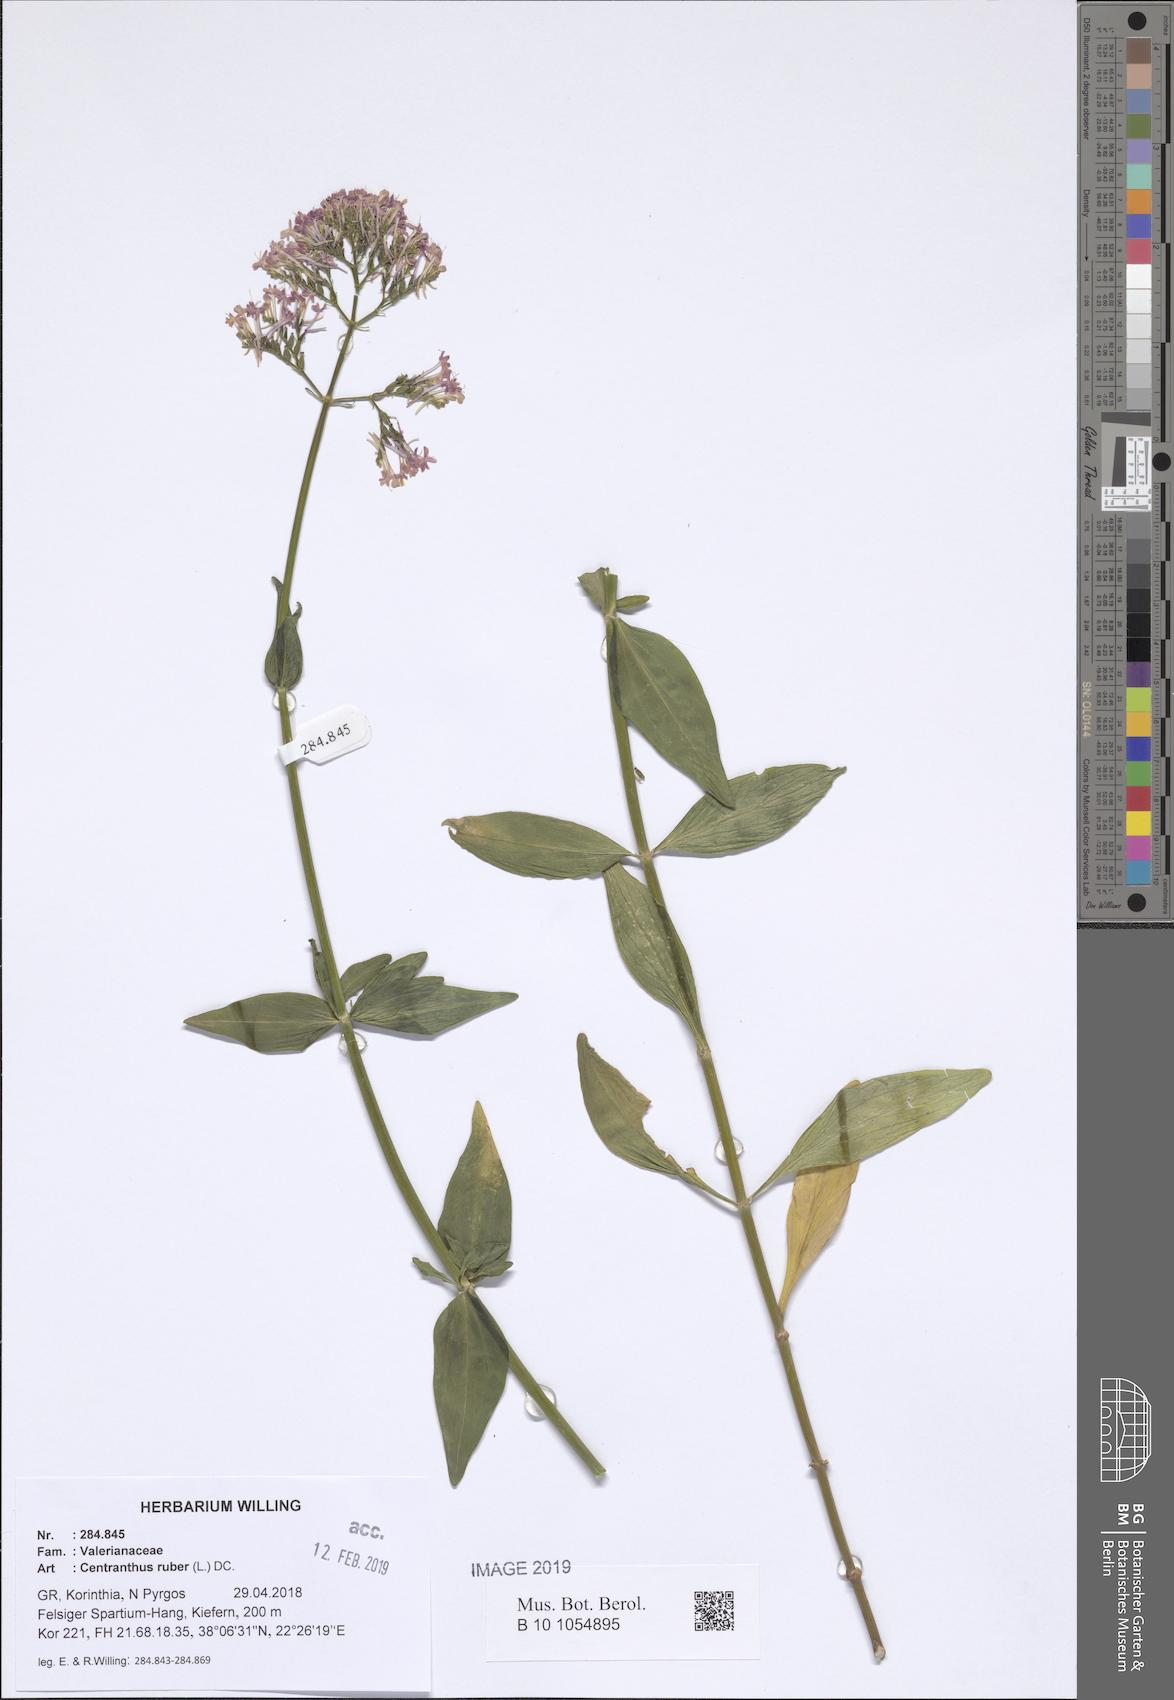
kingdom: Plantae
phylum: Tracheophyta
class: Magnoliopsida
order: Dipsacales
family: Caprifoliaceae
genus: Centranthus
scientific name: Centranthus ruber
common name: Red valerian
